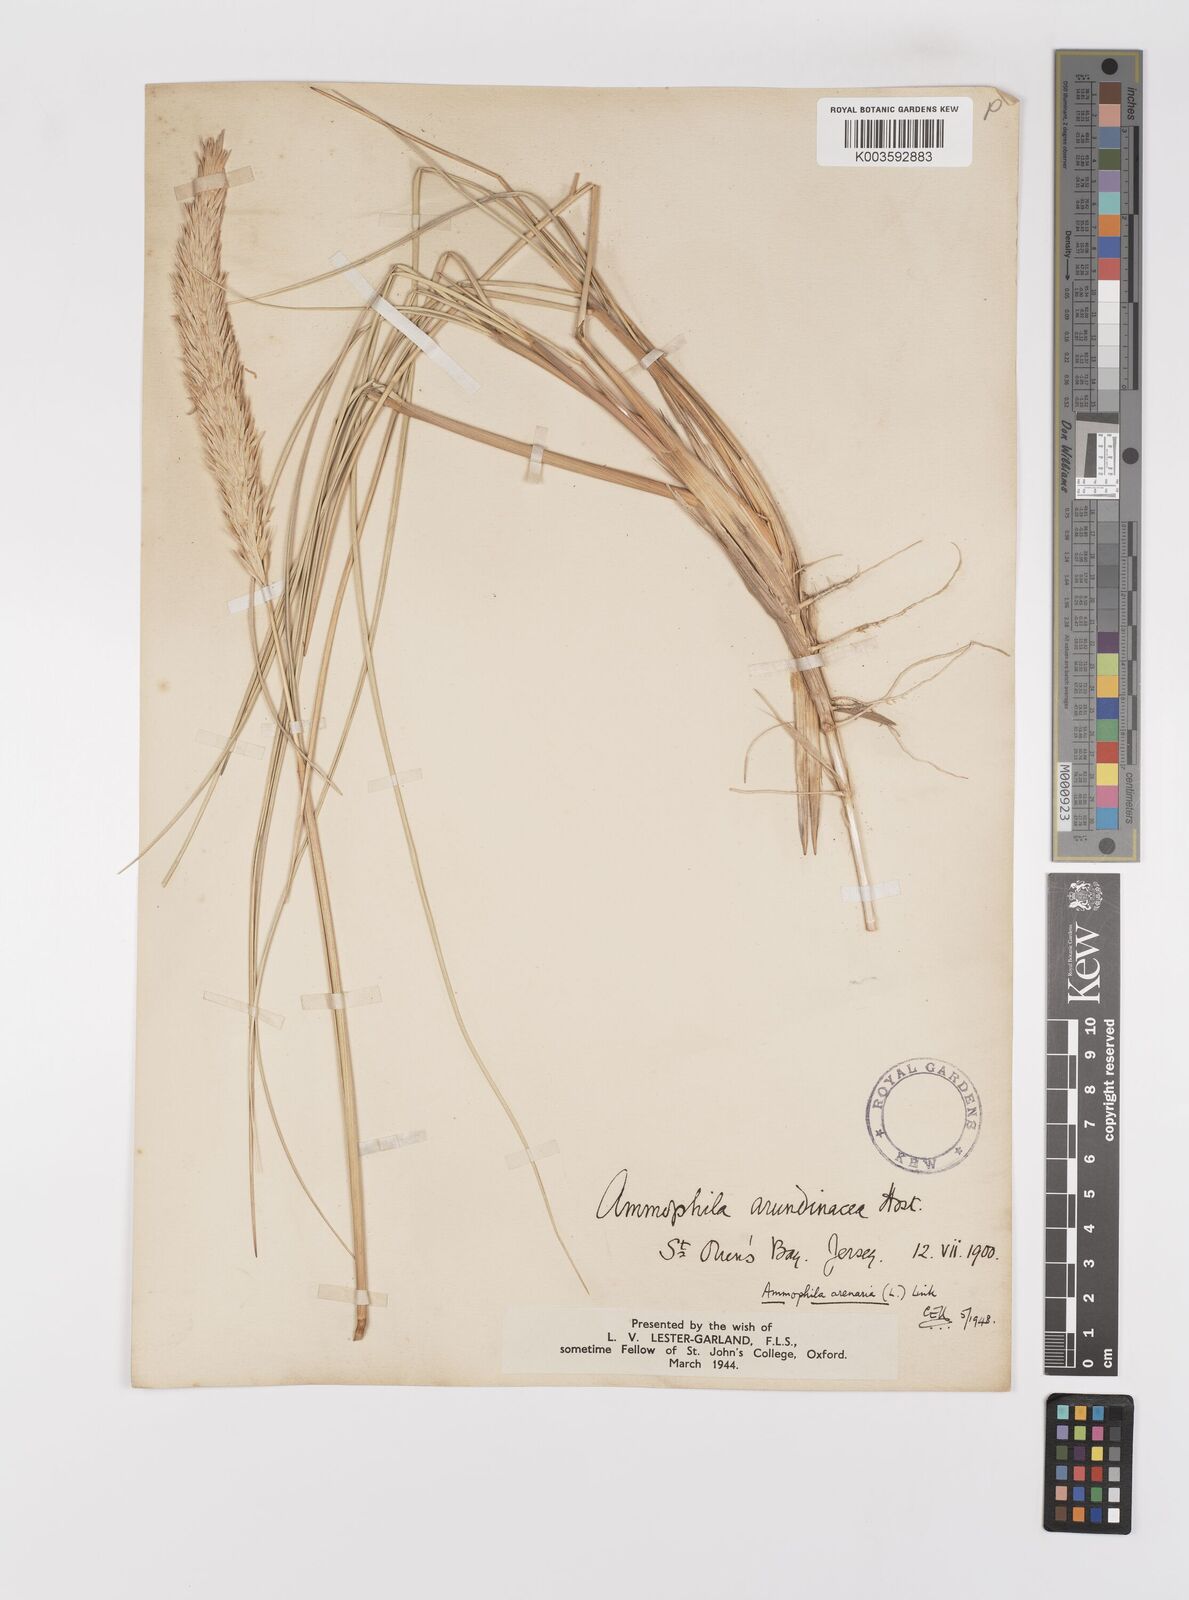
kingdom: Plantae
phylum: Tracheophyta
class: Liliopsida
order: Poales
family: Poaceae
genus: Calamagrostis
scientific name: Calamagrostis arenaria
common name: European beachgrass
